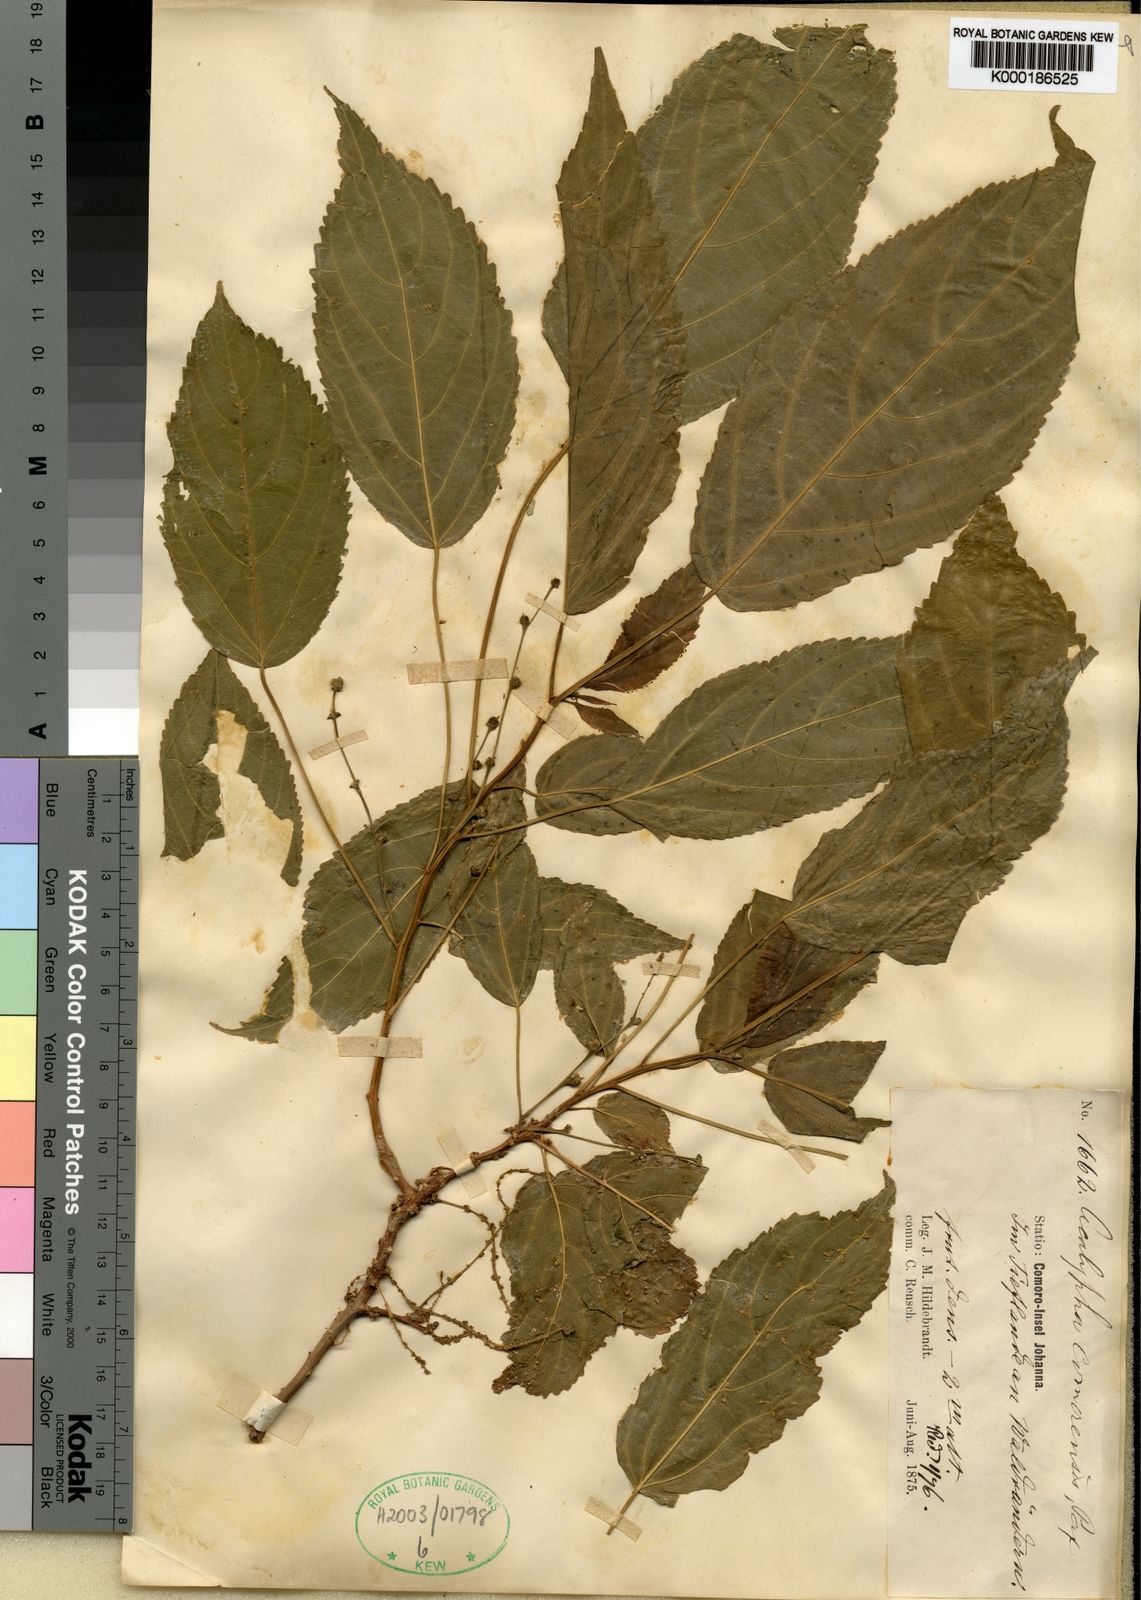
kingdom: Plantae
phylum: Tracheophyta
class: Magnoliopsida
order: Malpighiales
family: Euphorbiaceae
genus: Acalypha
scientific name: Acalypha chibomboa
